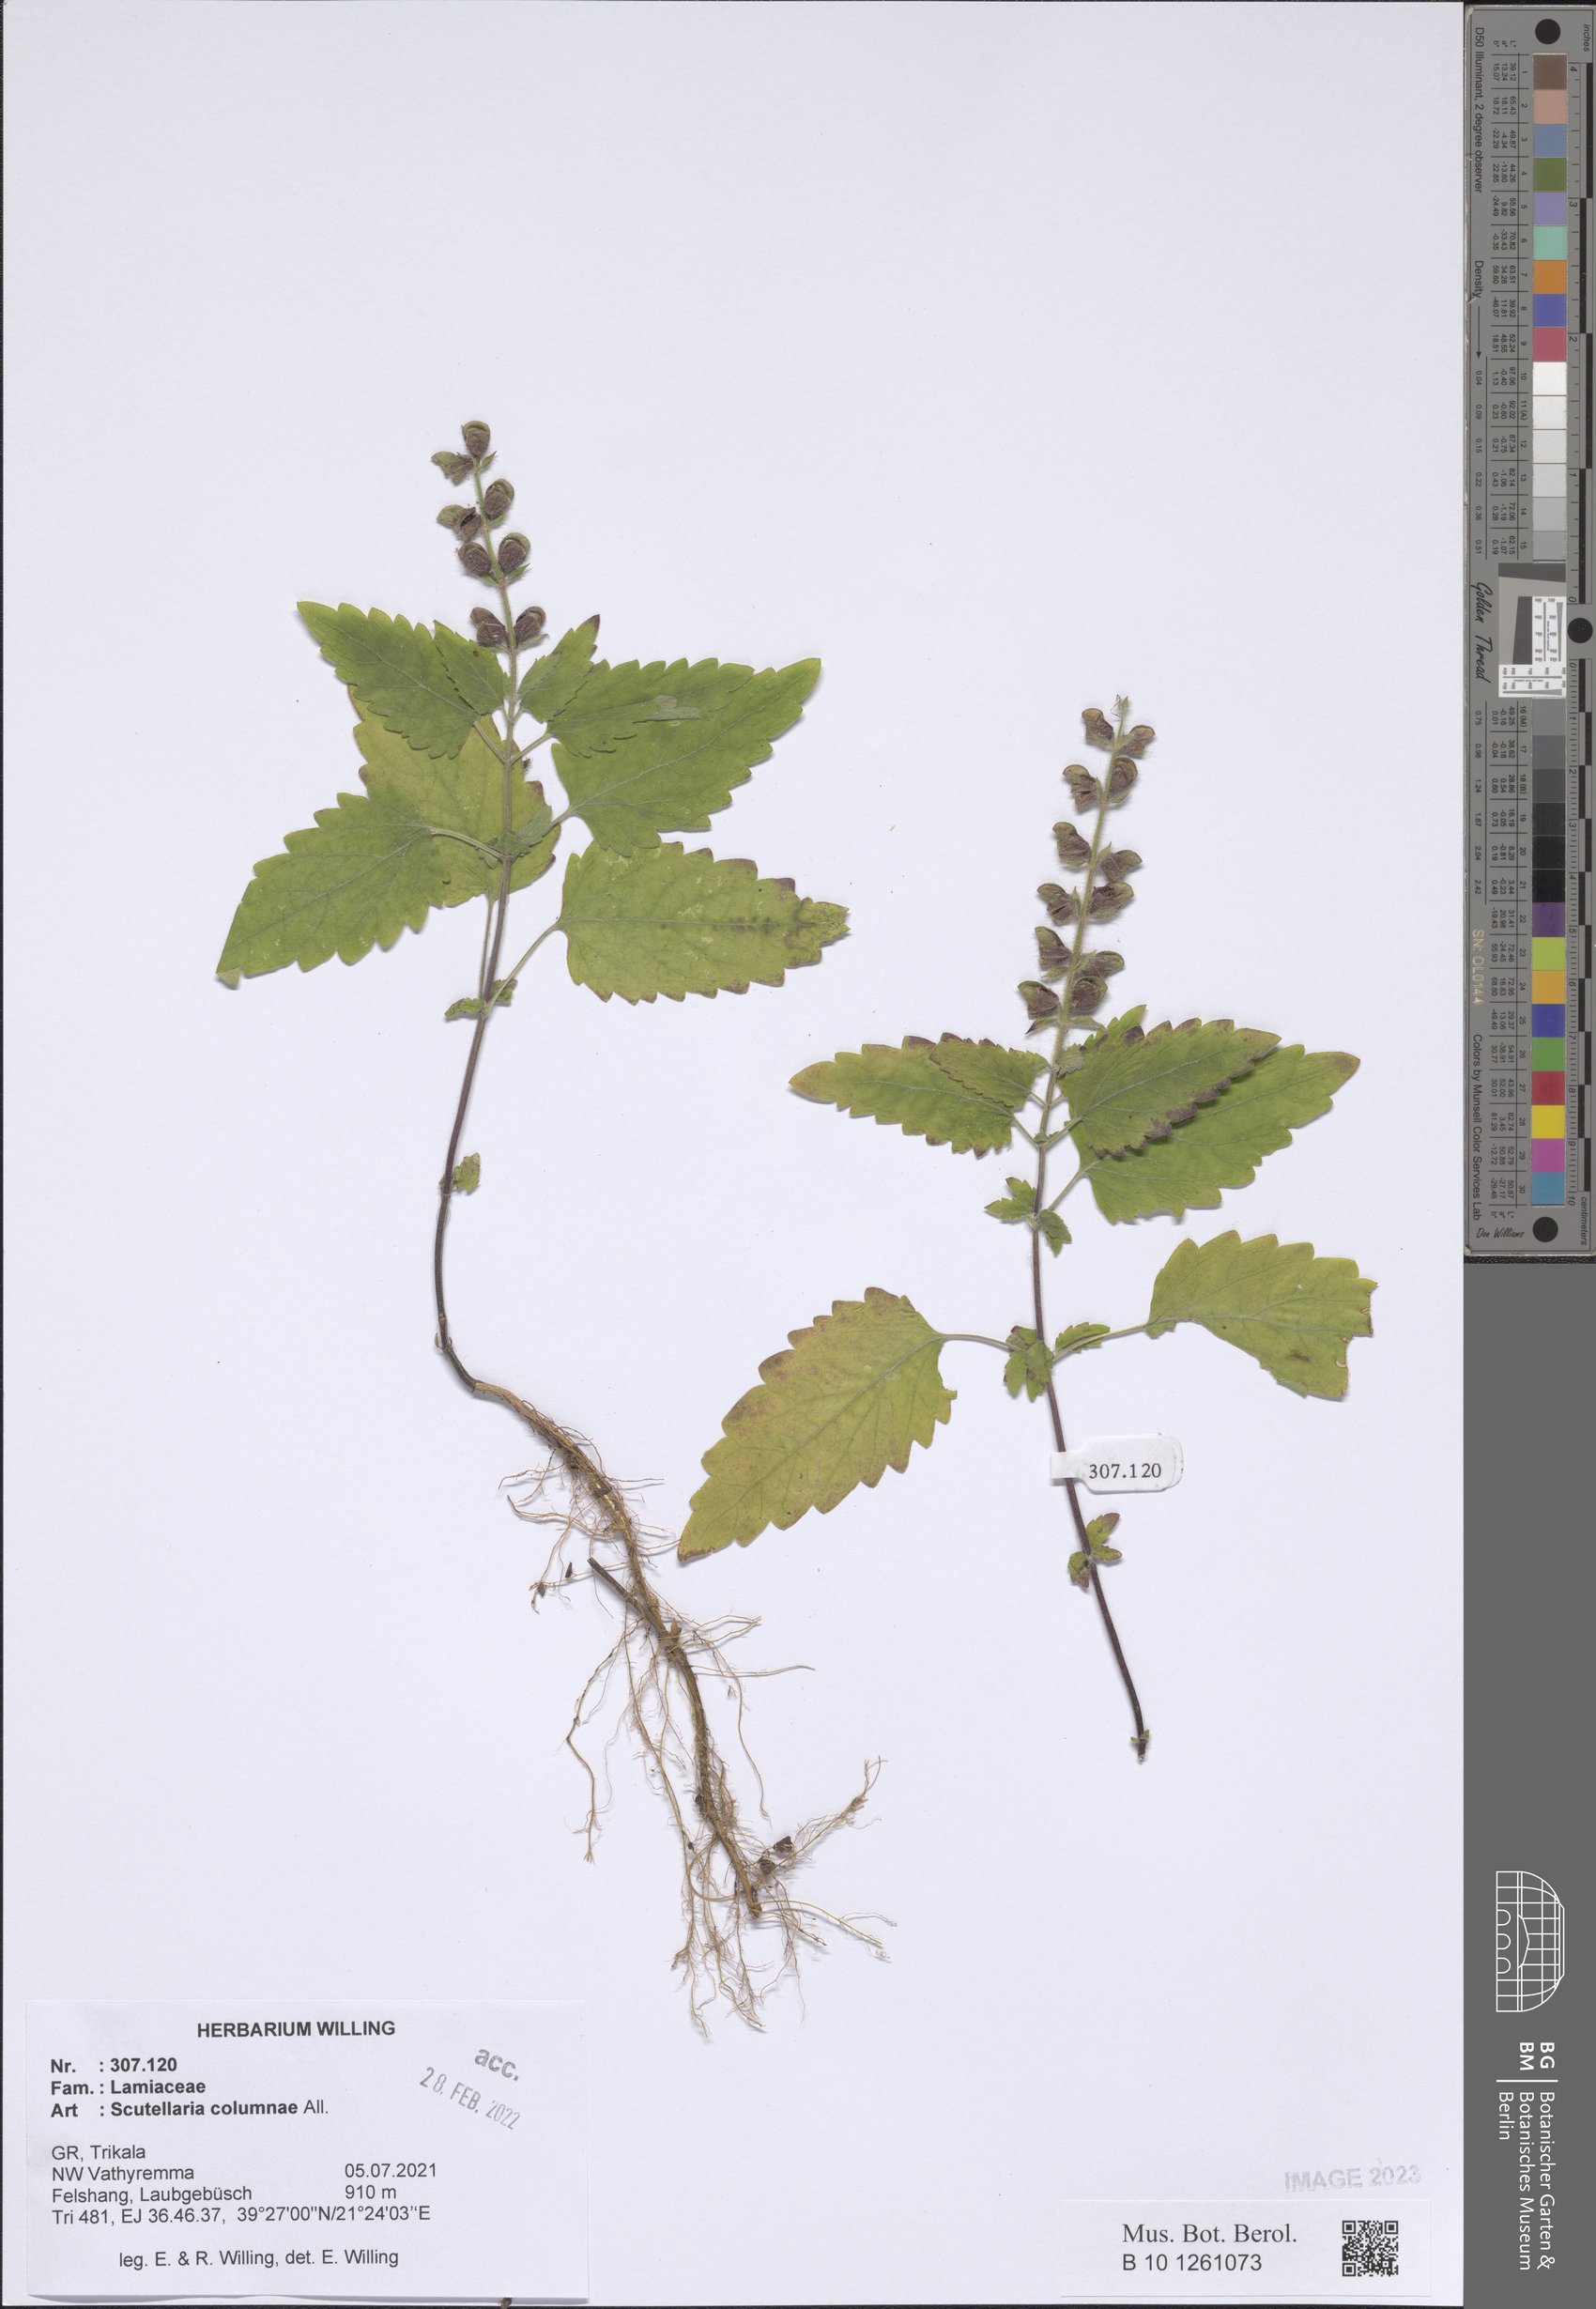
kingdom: Plantae
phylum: Tracheophyta
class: Magnoliopsida
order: Lamiales
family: Lamiaceae
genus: Scutellaria
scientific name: Scutellaria columnae
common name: Large skullcap
